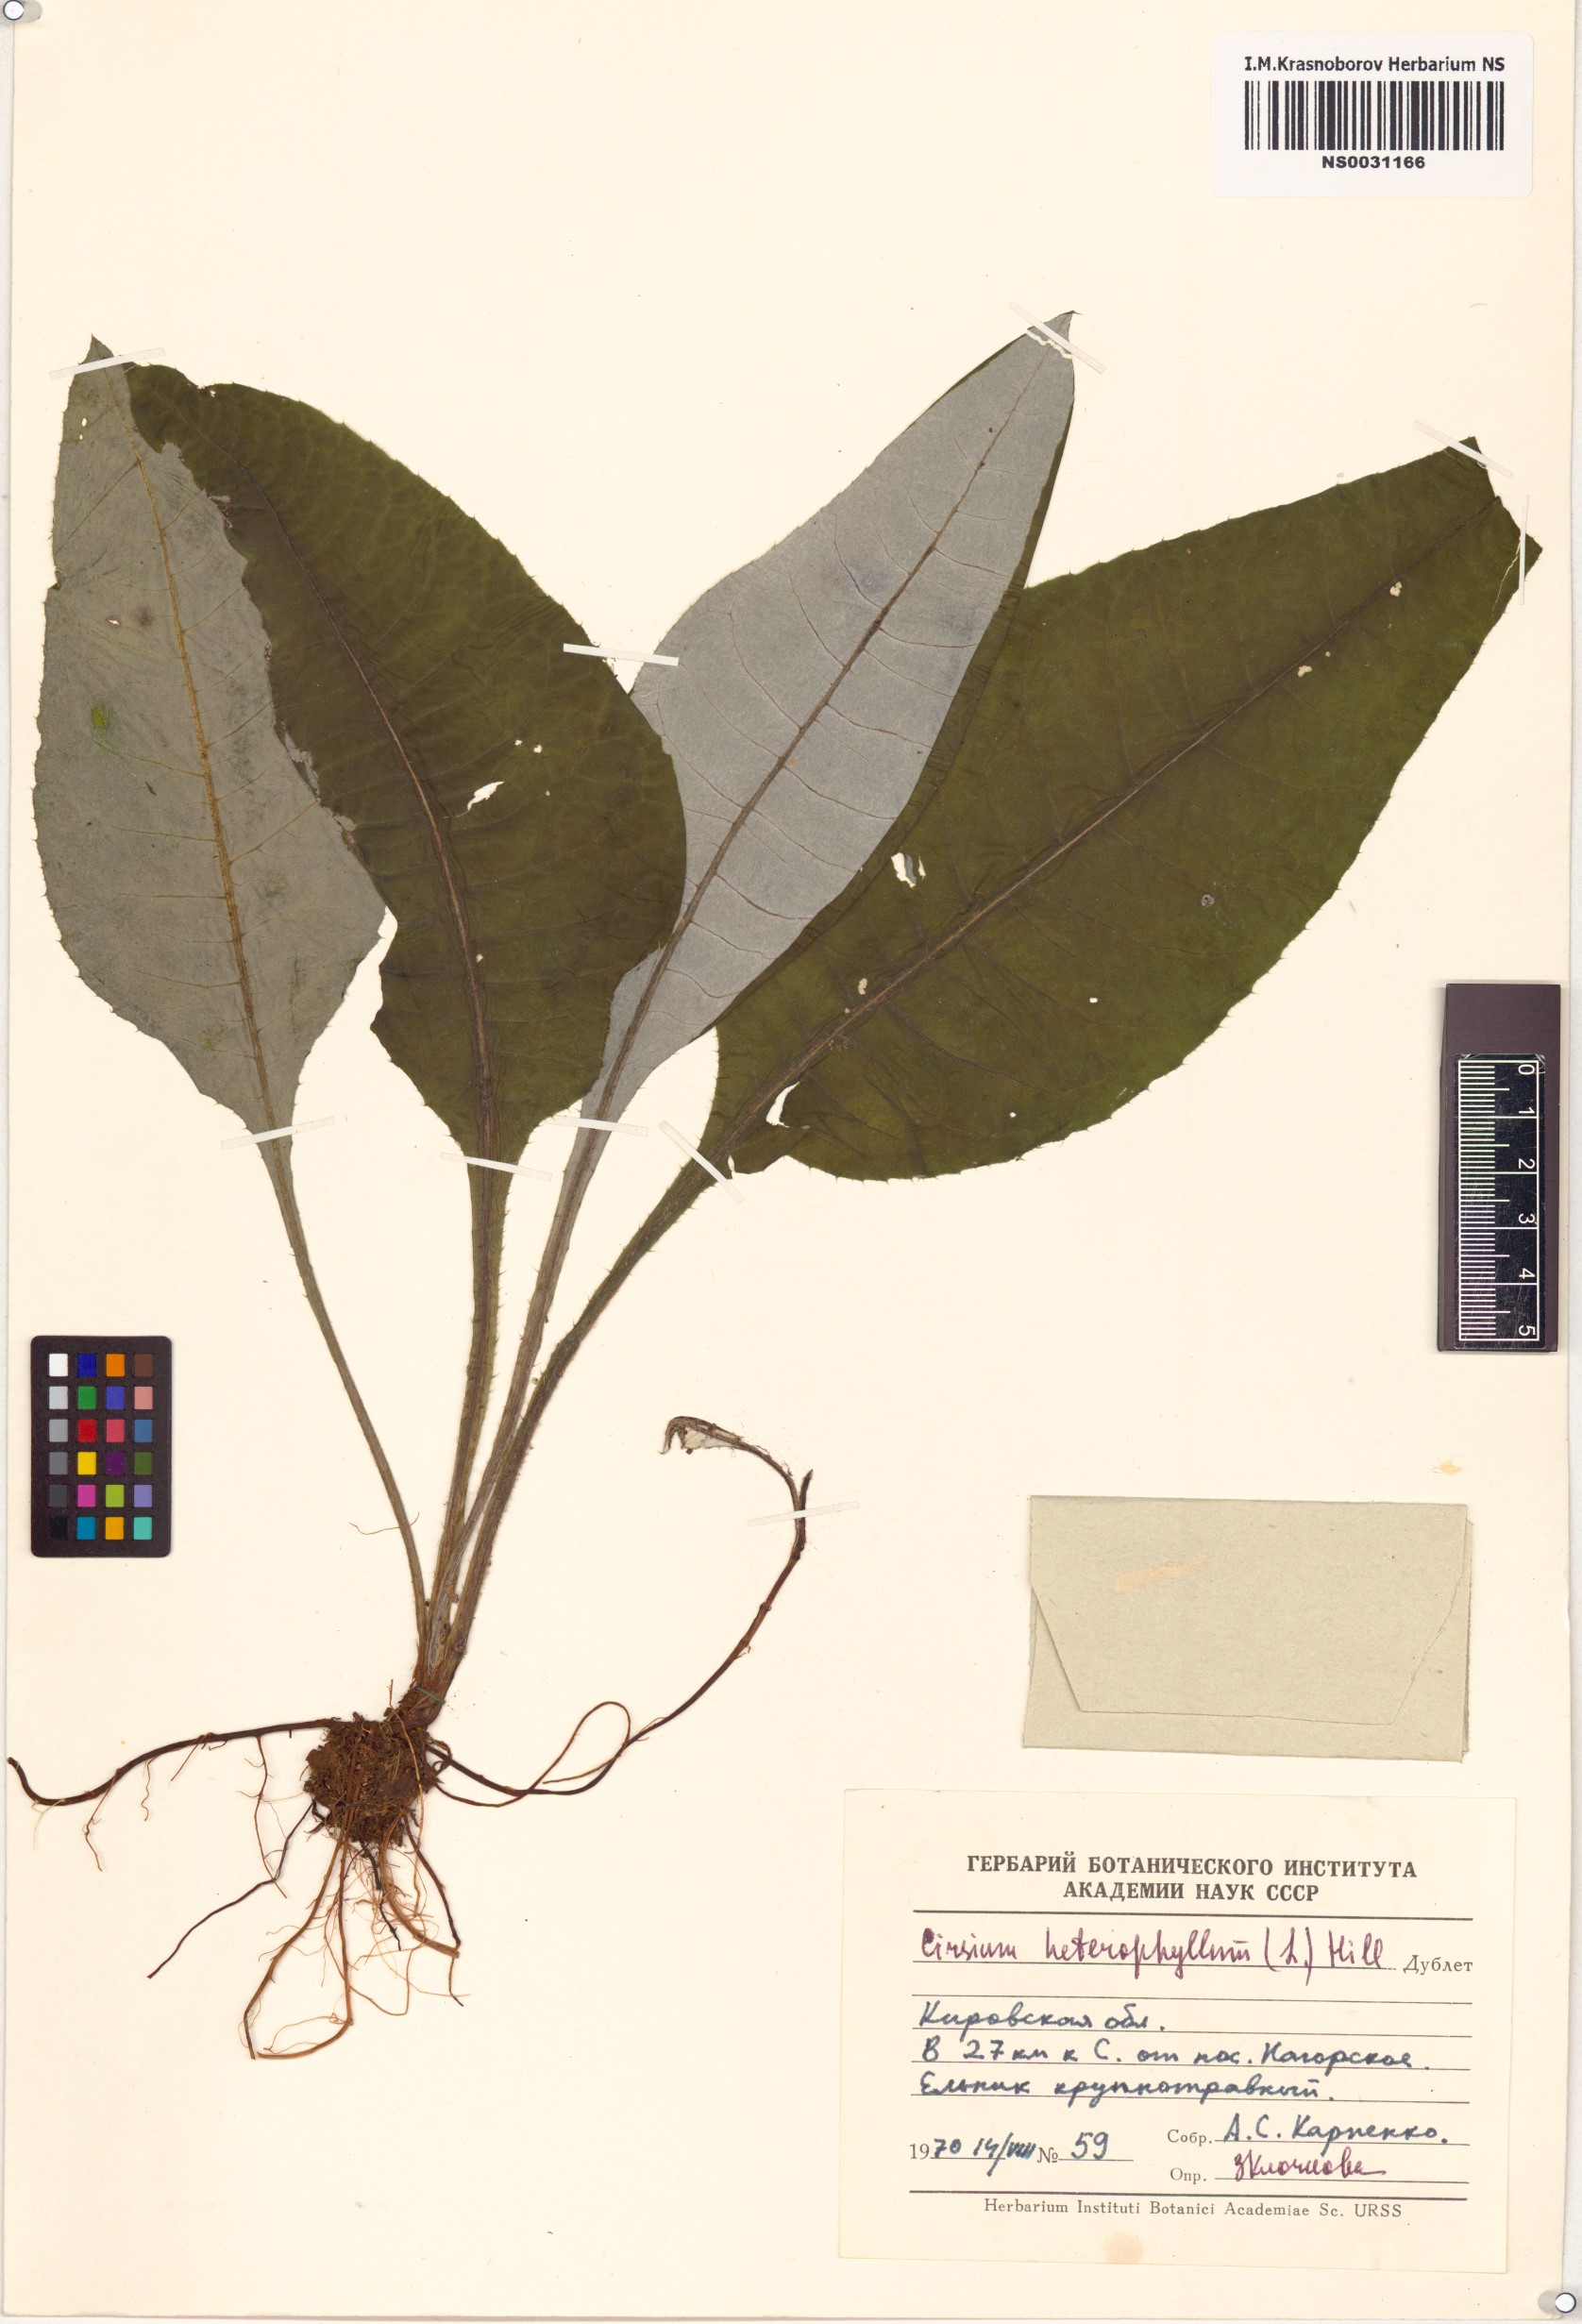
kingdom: Plantae
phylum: Tracheophyta
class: Magnoliopsida
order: Asterales
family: Asteraceae
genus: Cirsium
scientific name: Cirsium heterophyllum
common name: Melancholy thistle
